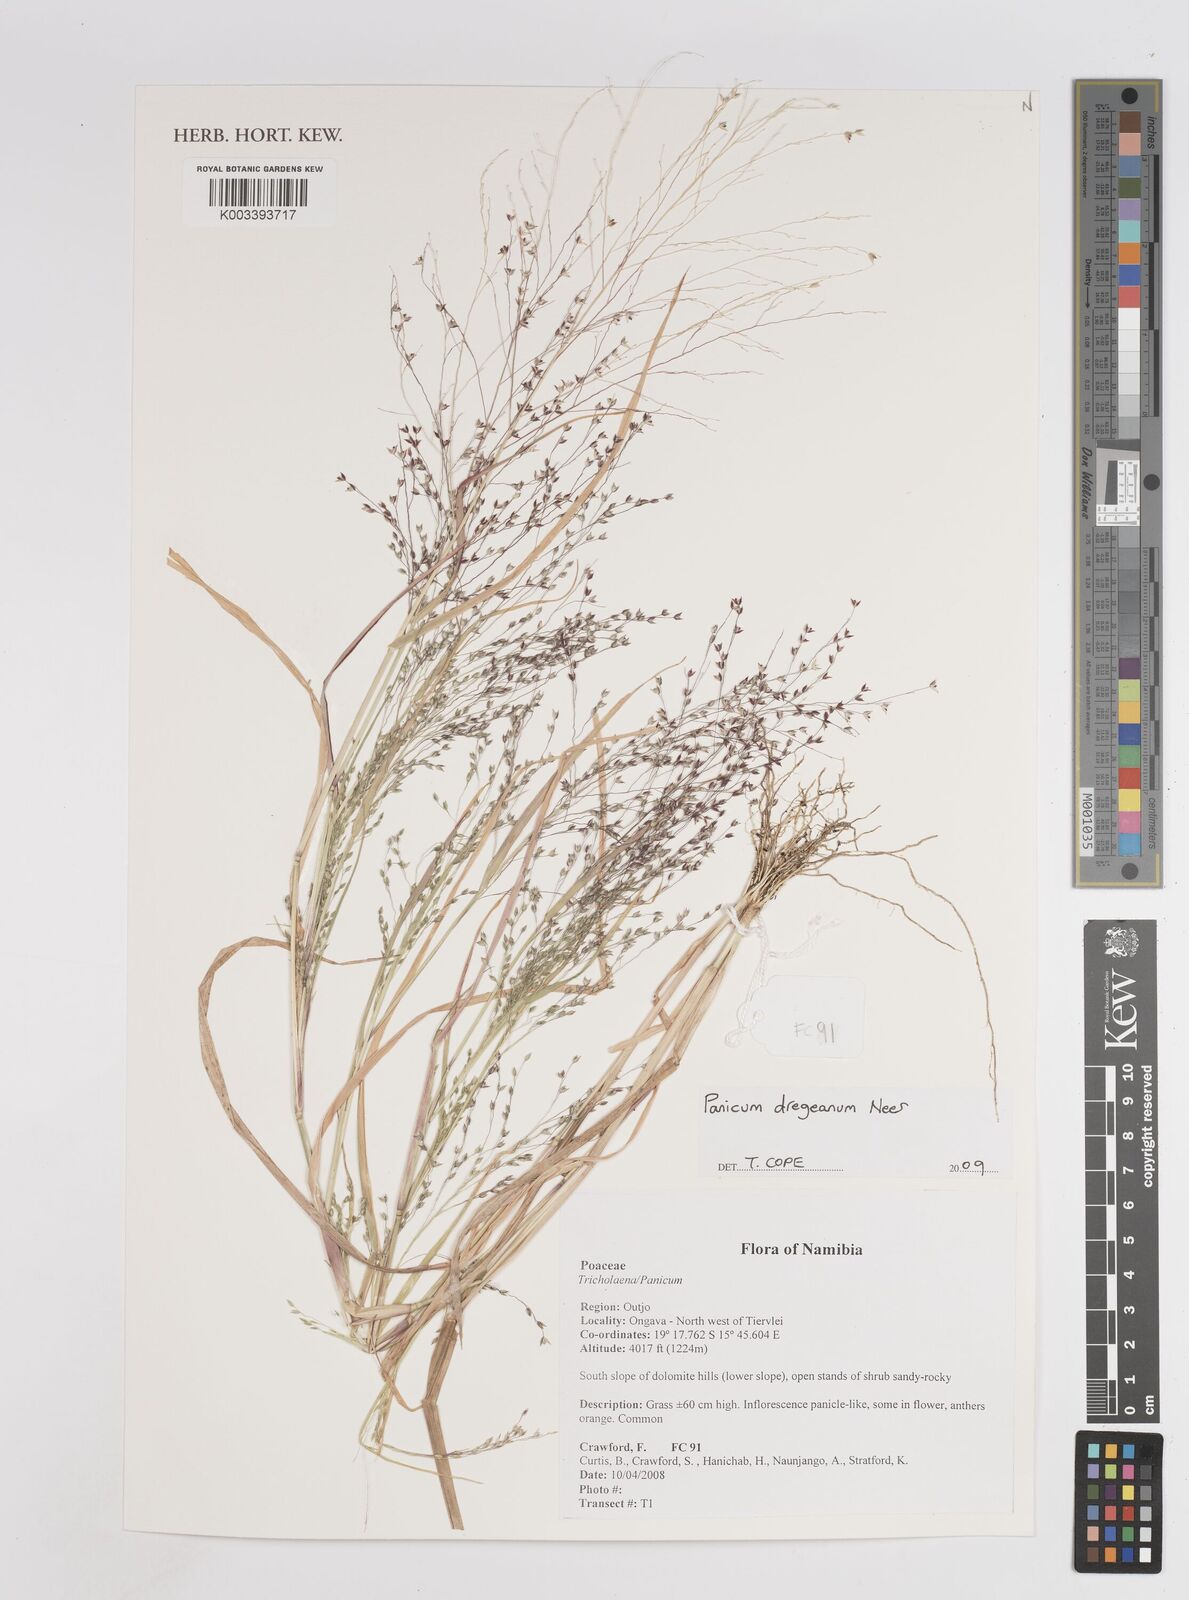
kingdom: Plantae
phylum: Tracheophyta
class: Liliopsida
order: Poales
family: Poaceae
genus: Panicum
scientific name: Panicum dregeanum
